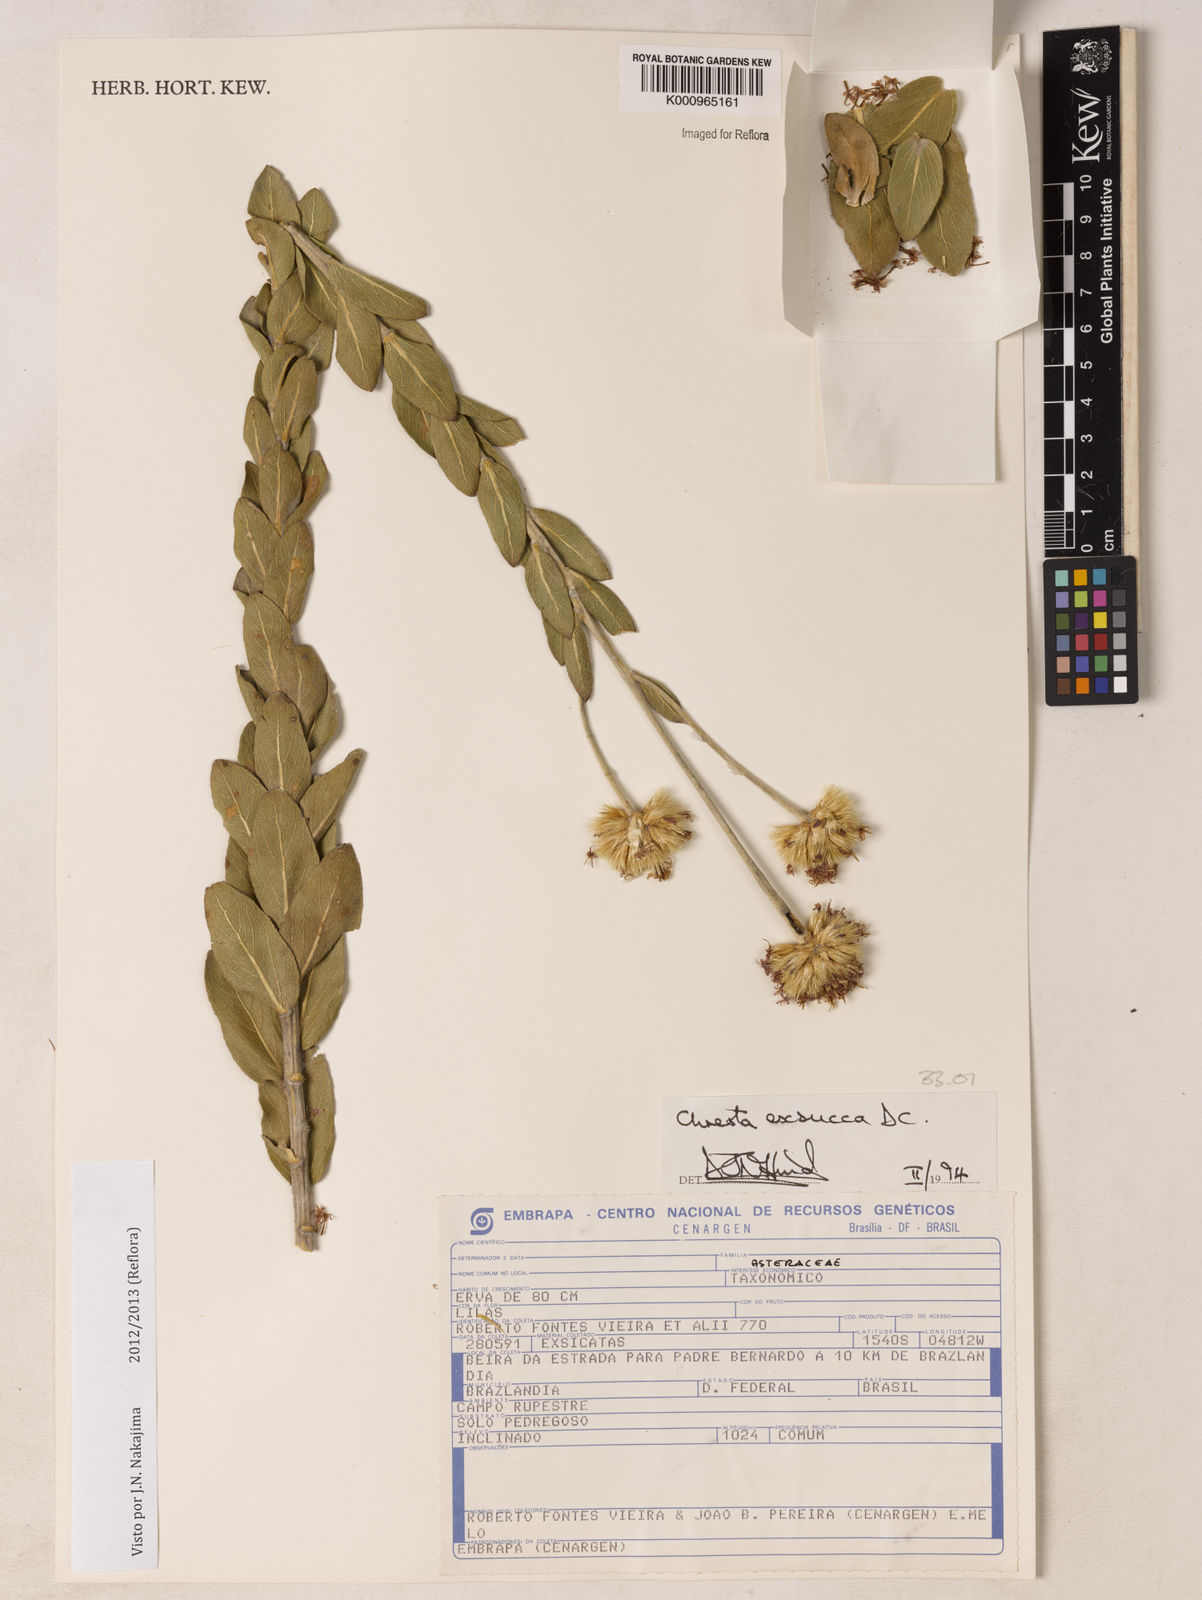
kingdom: Plantae
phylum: Tracheophyta
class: Magnoliopsida
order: Asterales
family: Asteraceae
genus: Chresta
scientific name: Chresta exsucca
